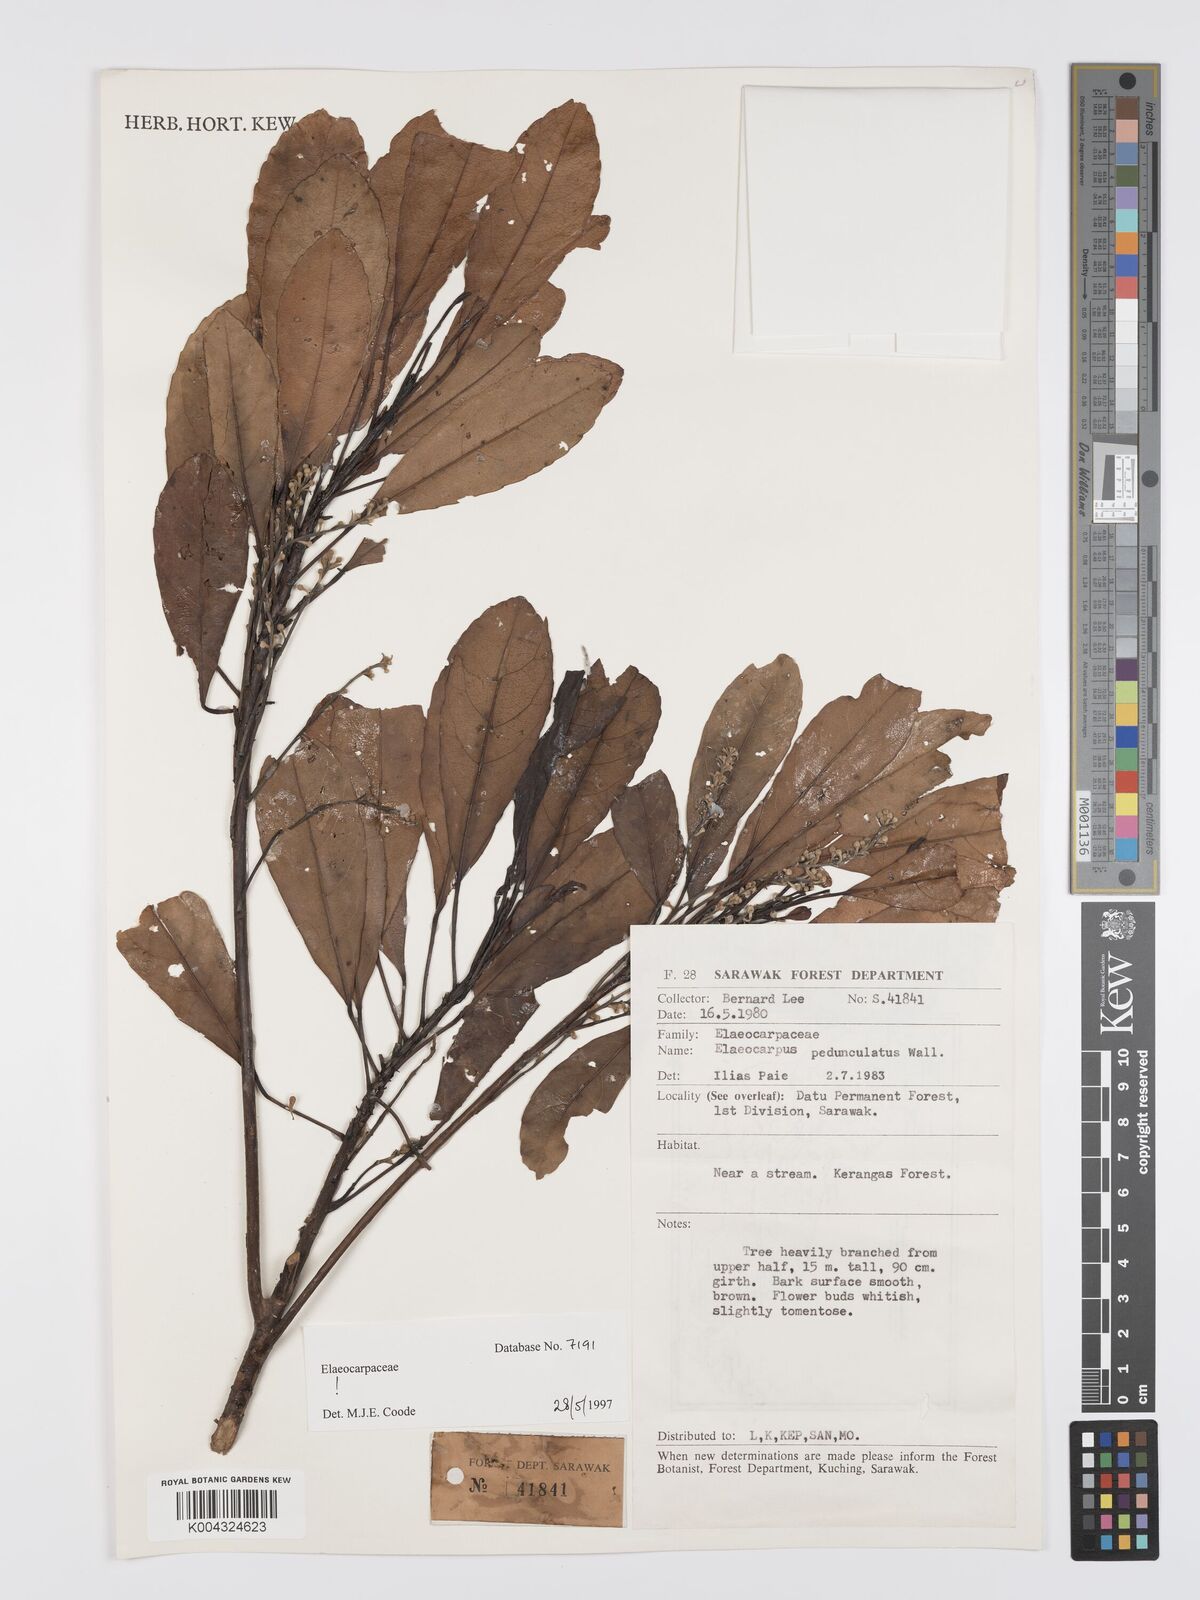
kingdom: Plantae
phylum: Tracheophyta
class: Magnoliopsida
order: Oxalidales
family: Elaeocarpaceae
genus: Elaeocarpus
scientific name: Elaeocarpus pedunculatus
